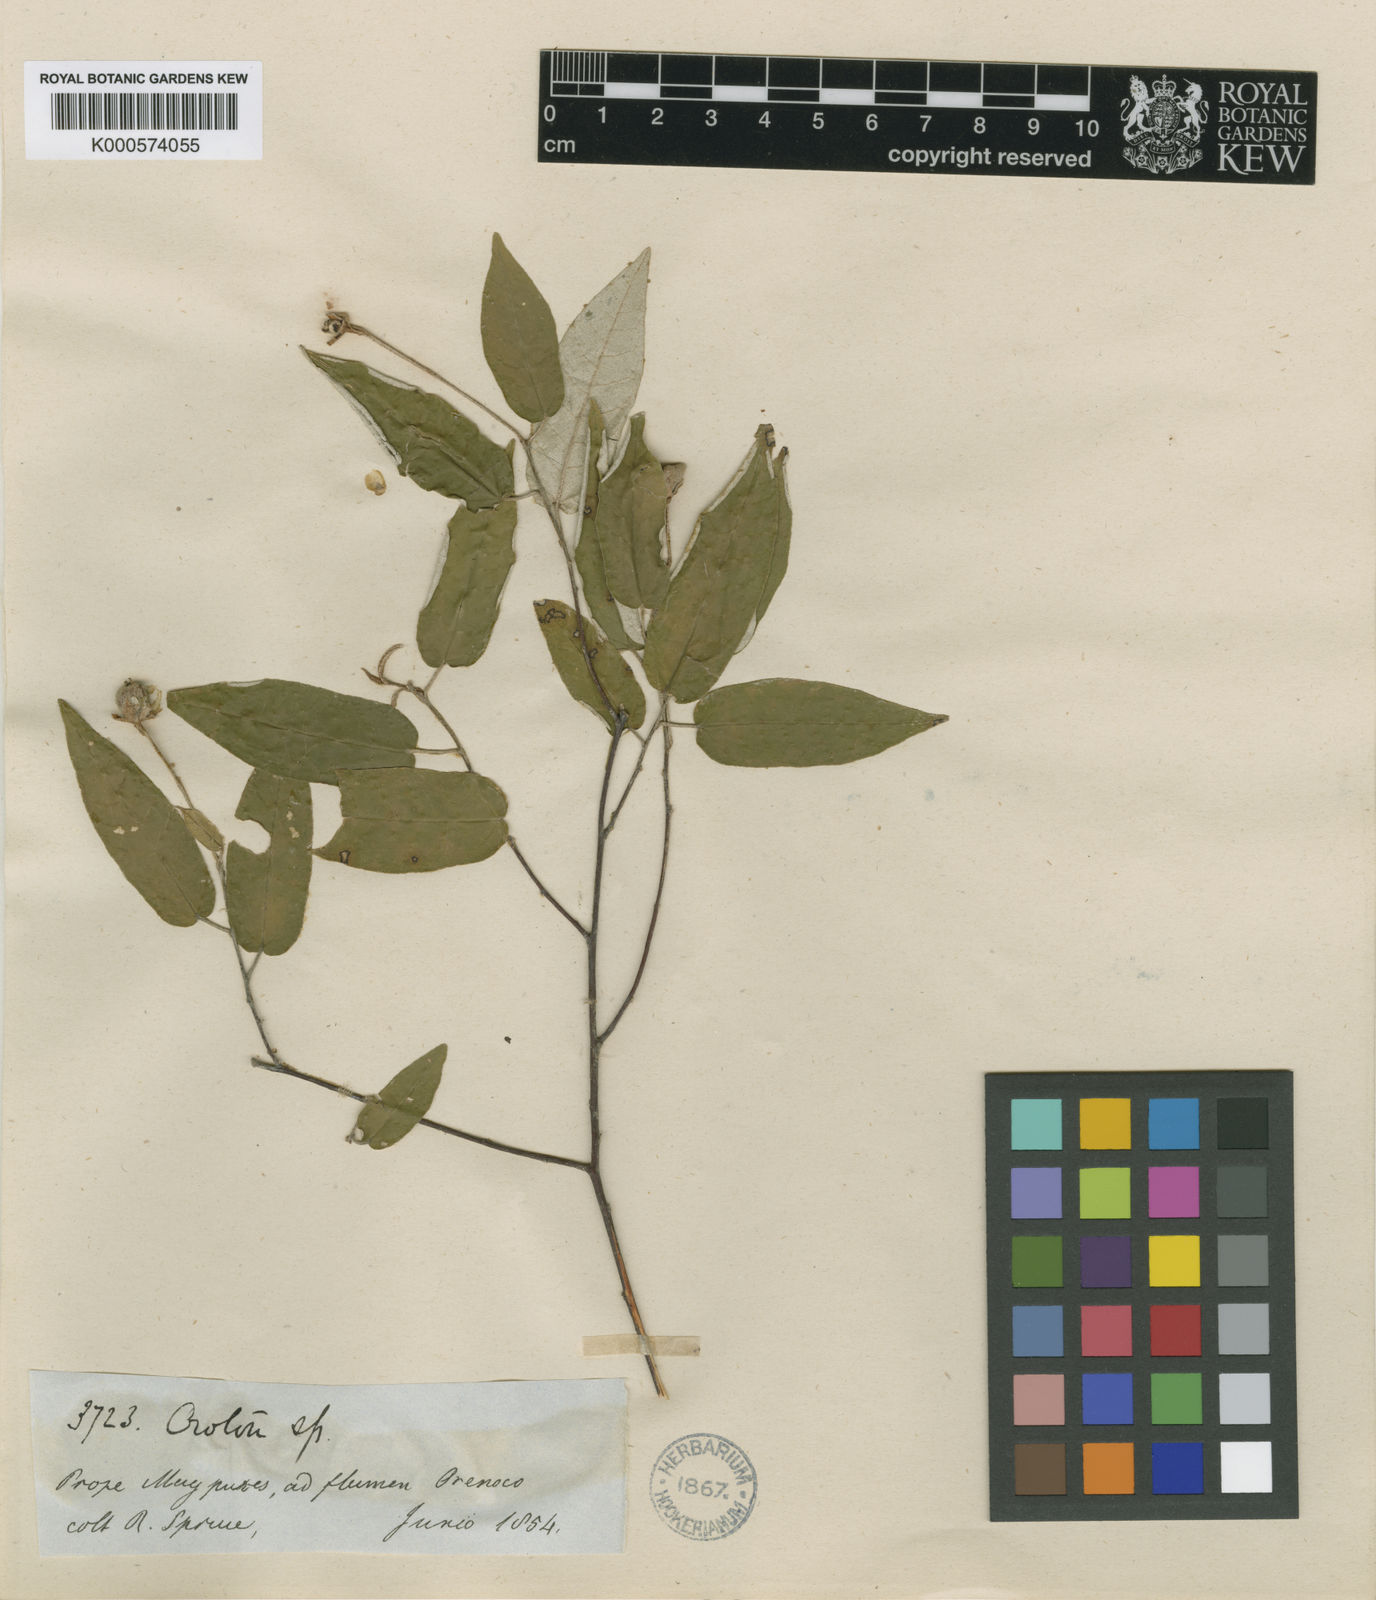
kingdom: Plantae
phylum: Tracheophyta
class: Magnoliopsida
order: Malpighiales
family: Euphorbiaceae
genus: Croton
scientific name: Croton
